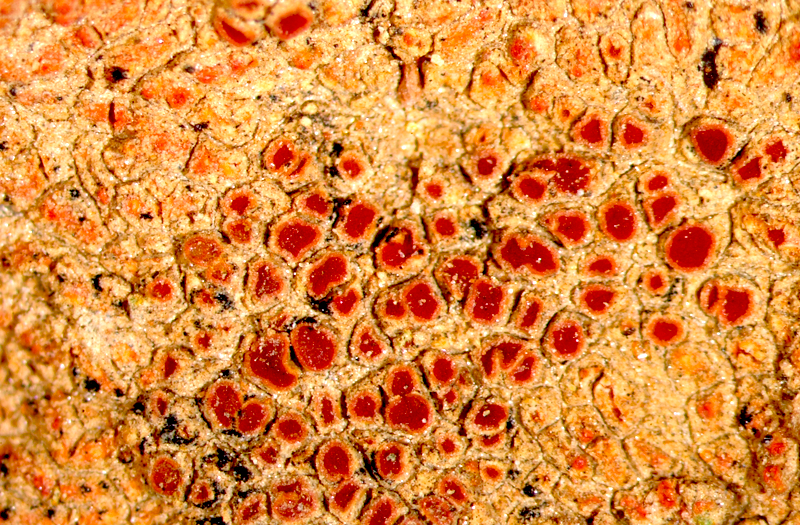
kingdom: Fungi
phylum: Ascomycota
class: Lecanoromycetes
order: Teloschistales
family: Teloschistaceae
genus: Caloplaca
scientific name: Caloplaca
